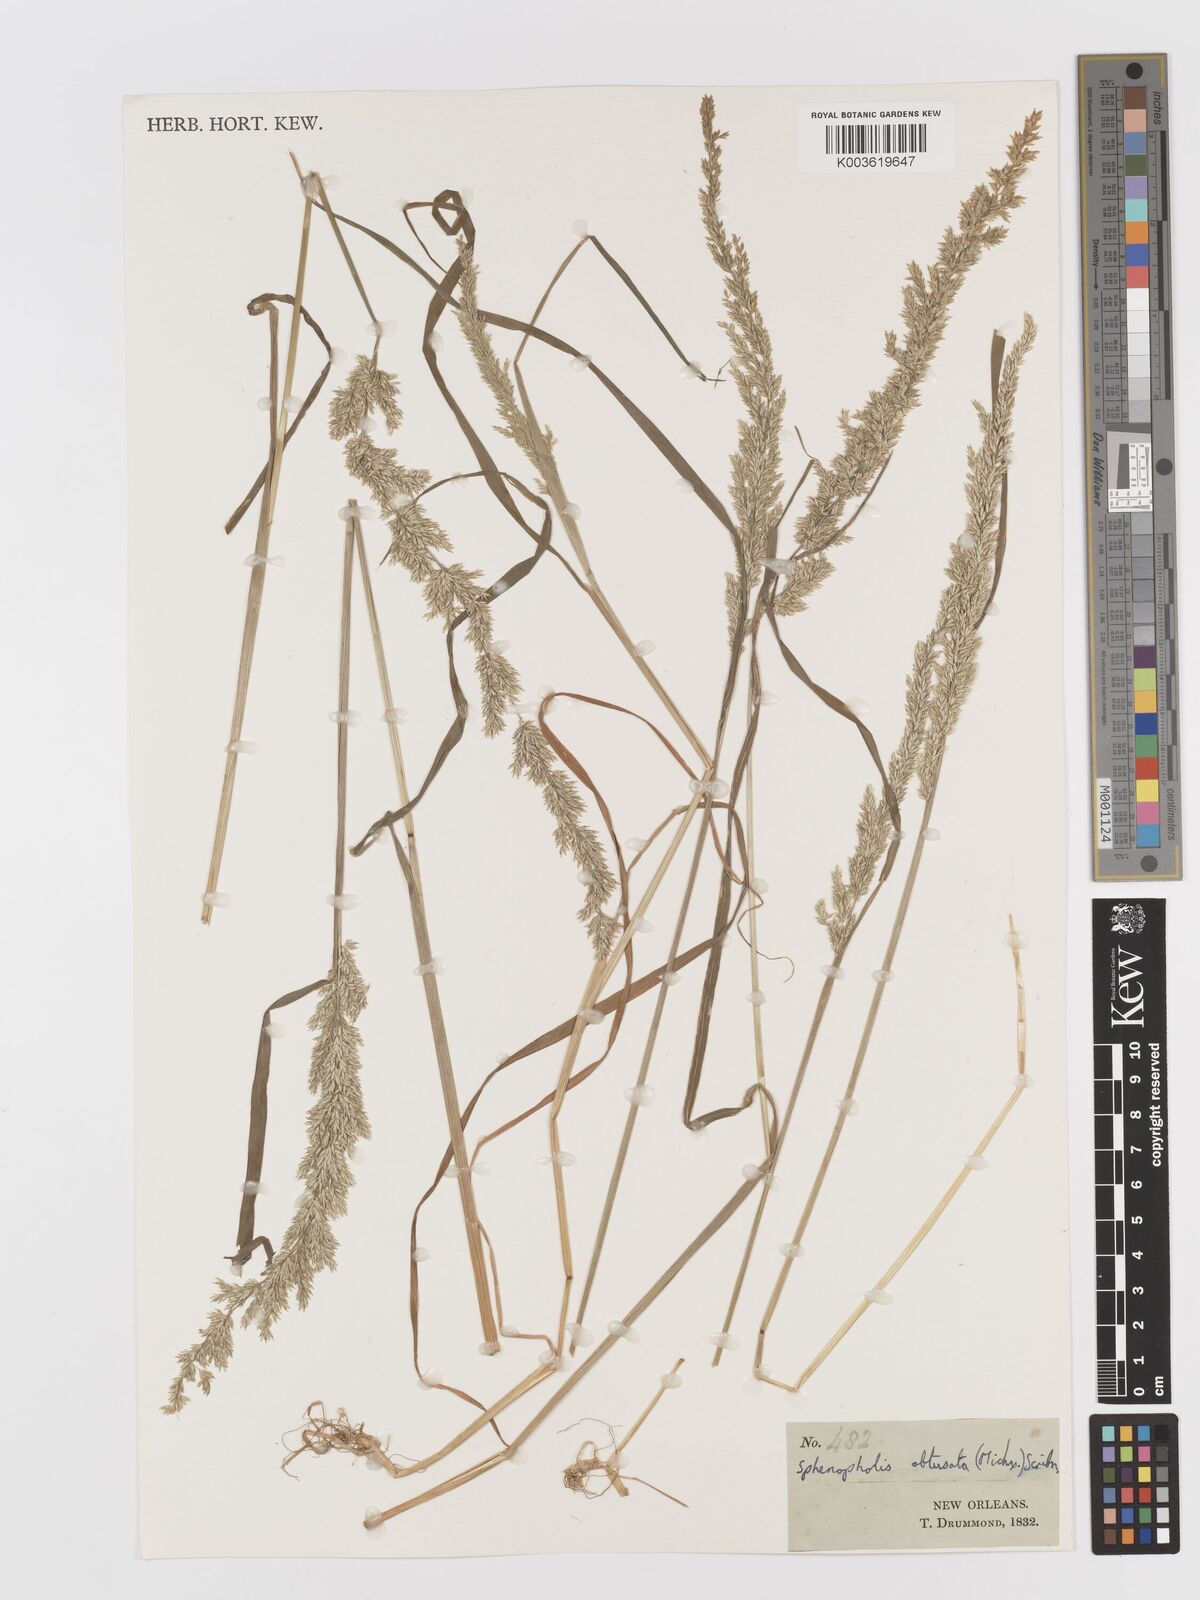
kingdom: Plantae
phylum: Tracheophyta
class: Liliopsida
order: Poales
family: Poaceae
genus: Sphenopholis
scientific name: Sphenopholis obtusata
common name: Prairie grass
